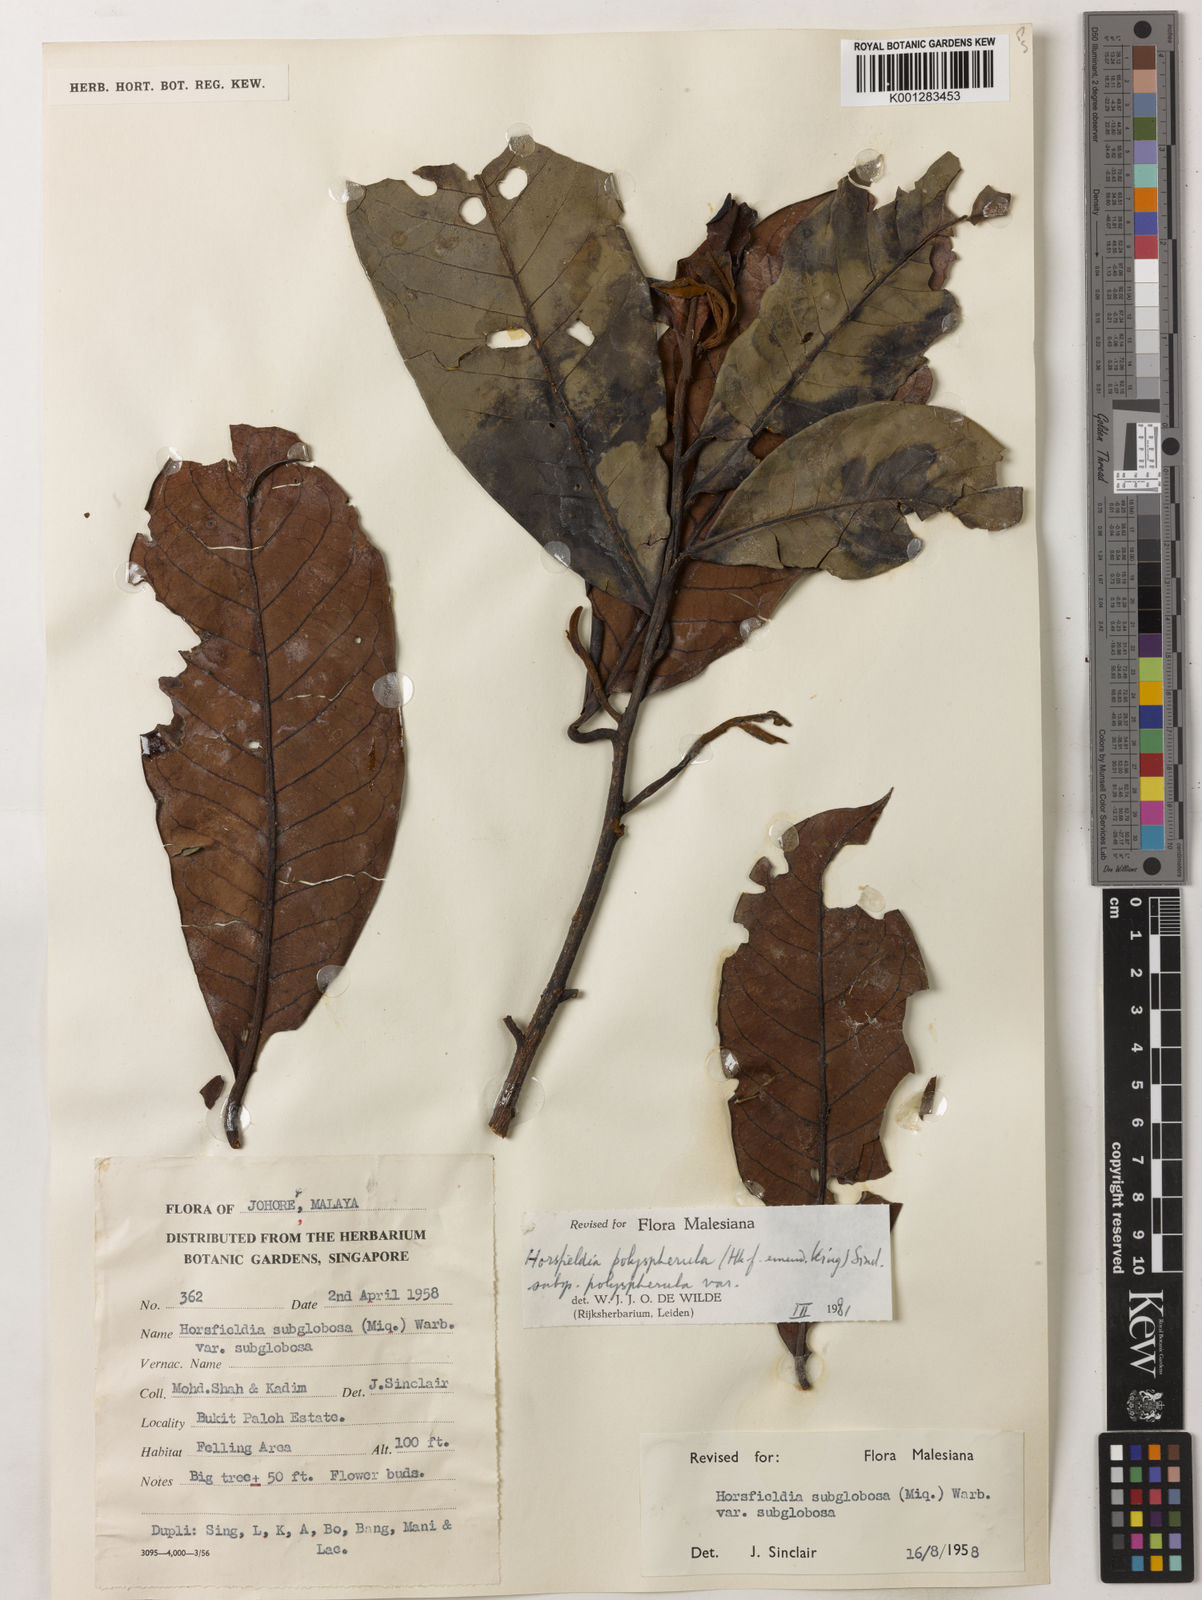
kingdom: Plantae
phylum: Tracheophyta
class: Magnoliopsida
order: Magnoliales
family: Myristicaceae
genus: Horsfieldia
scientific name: Horsfieldia polyspherula
